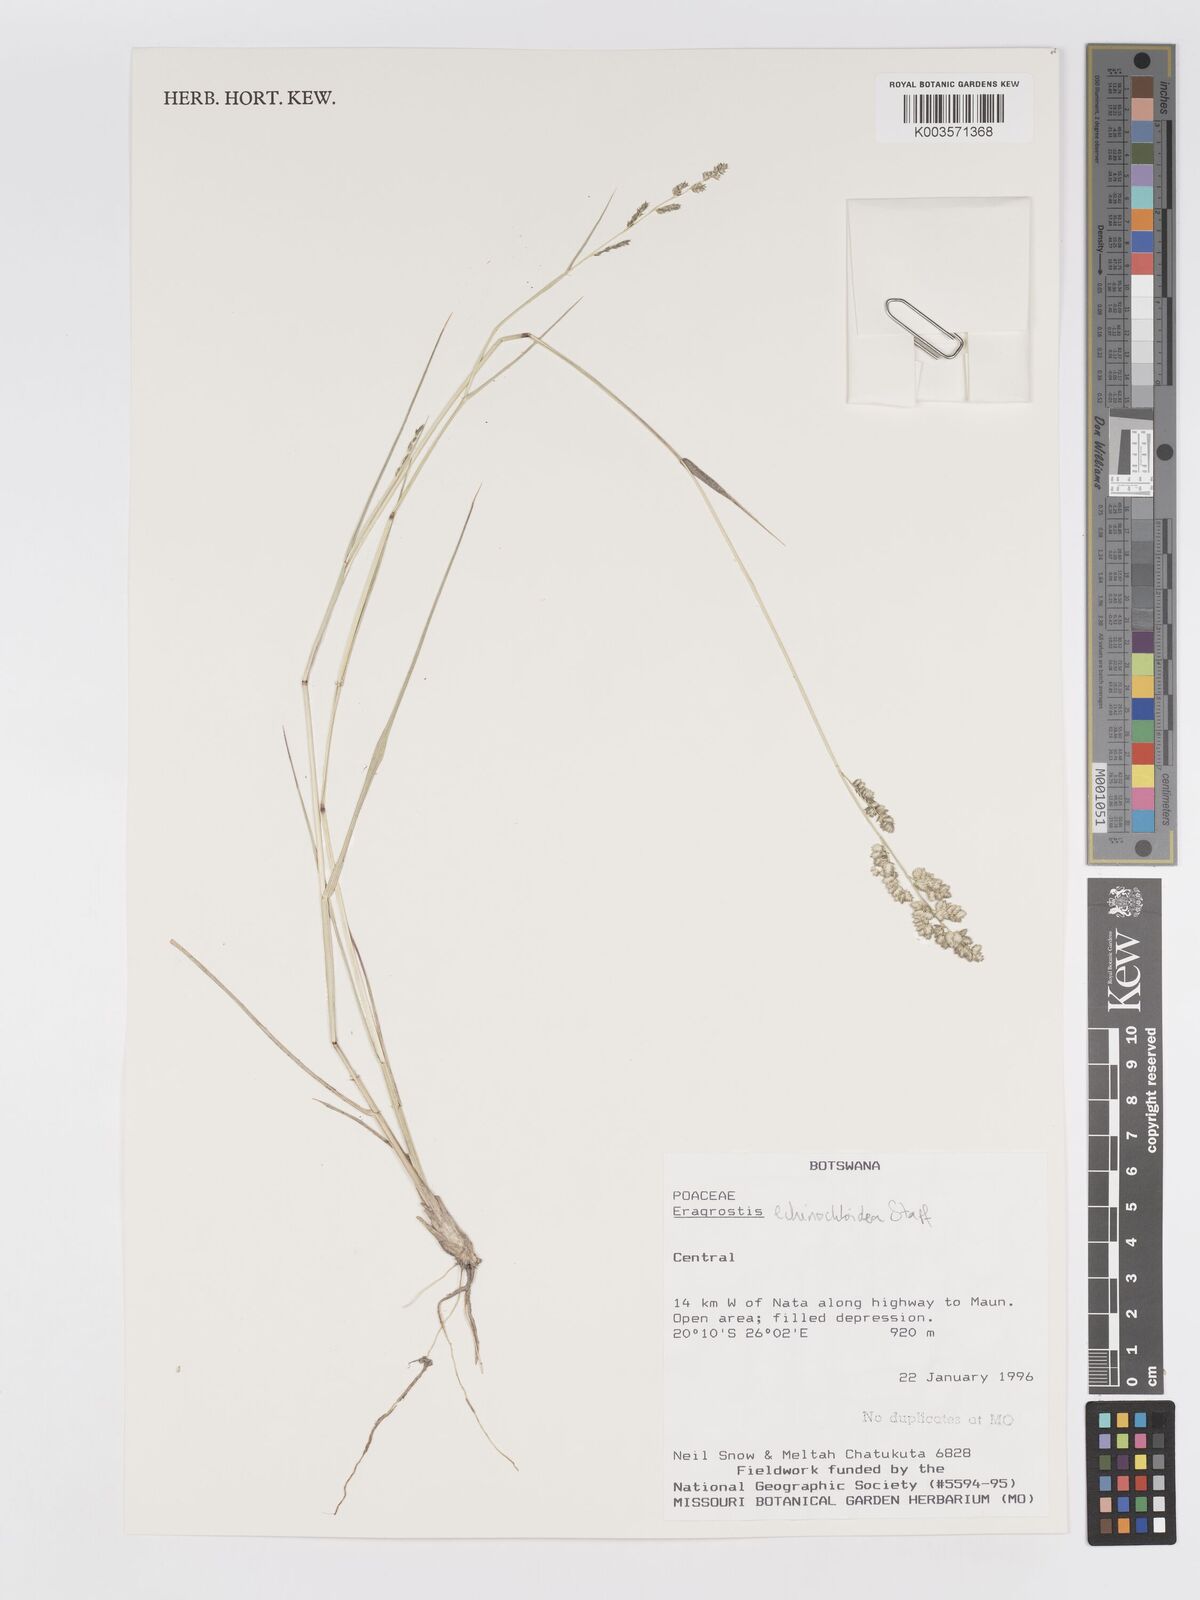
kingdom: Plantae
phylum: Tracheophyta
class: Liliopsida
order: Poales
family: Poaceae
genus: Eragrostis
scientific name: Eragrostis echinochloidea
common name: African lovegrass
